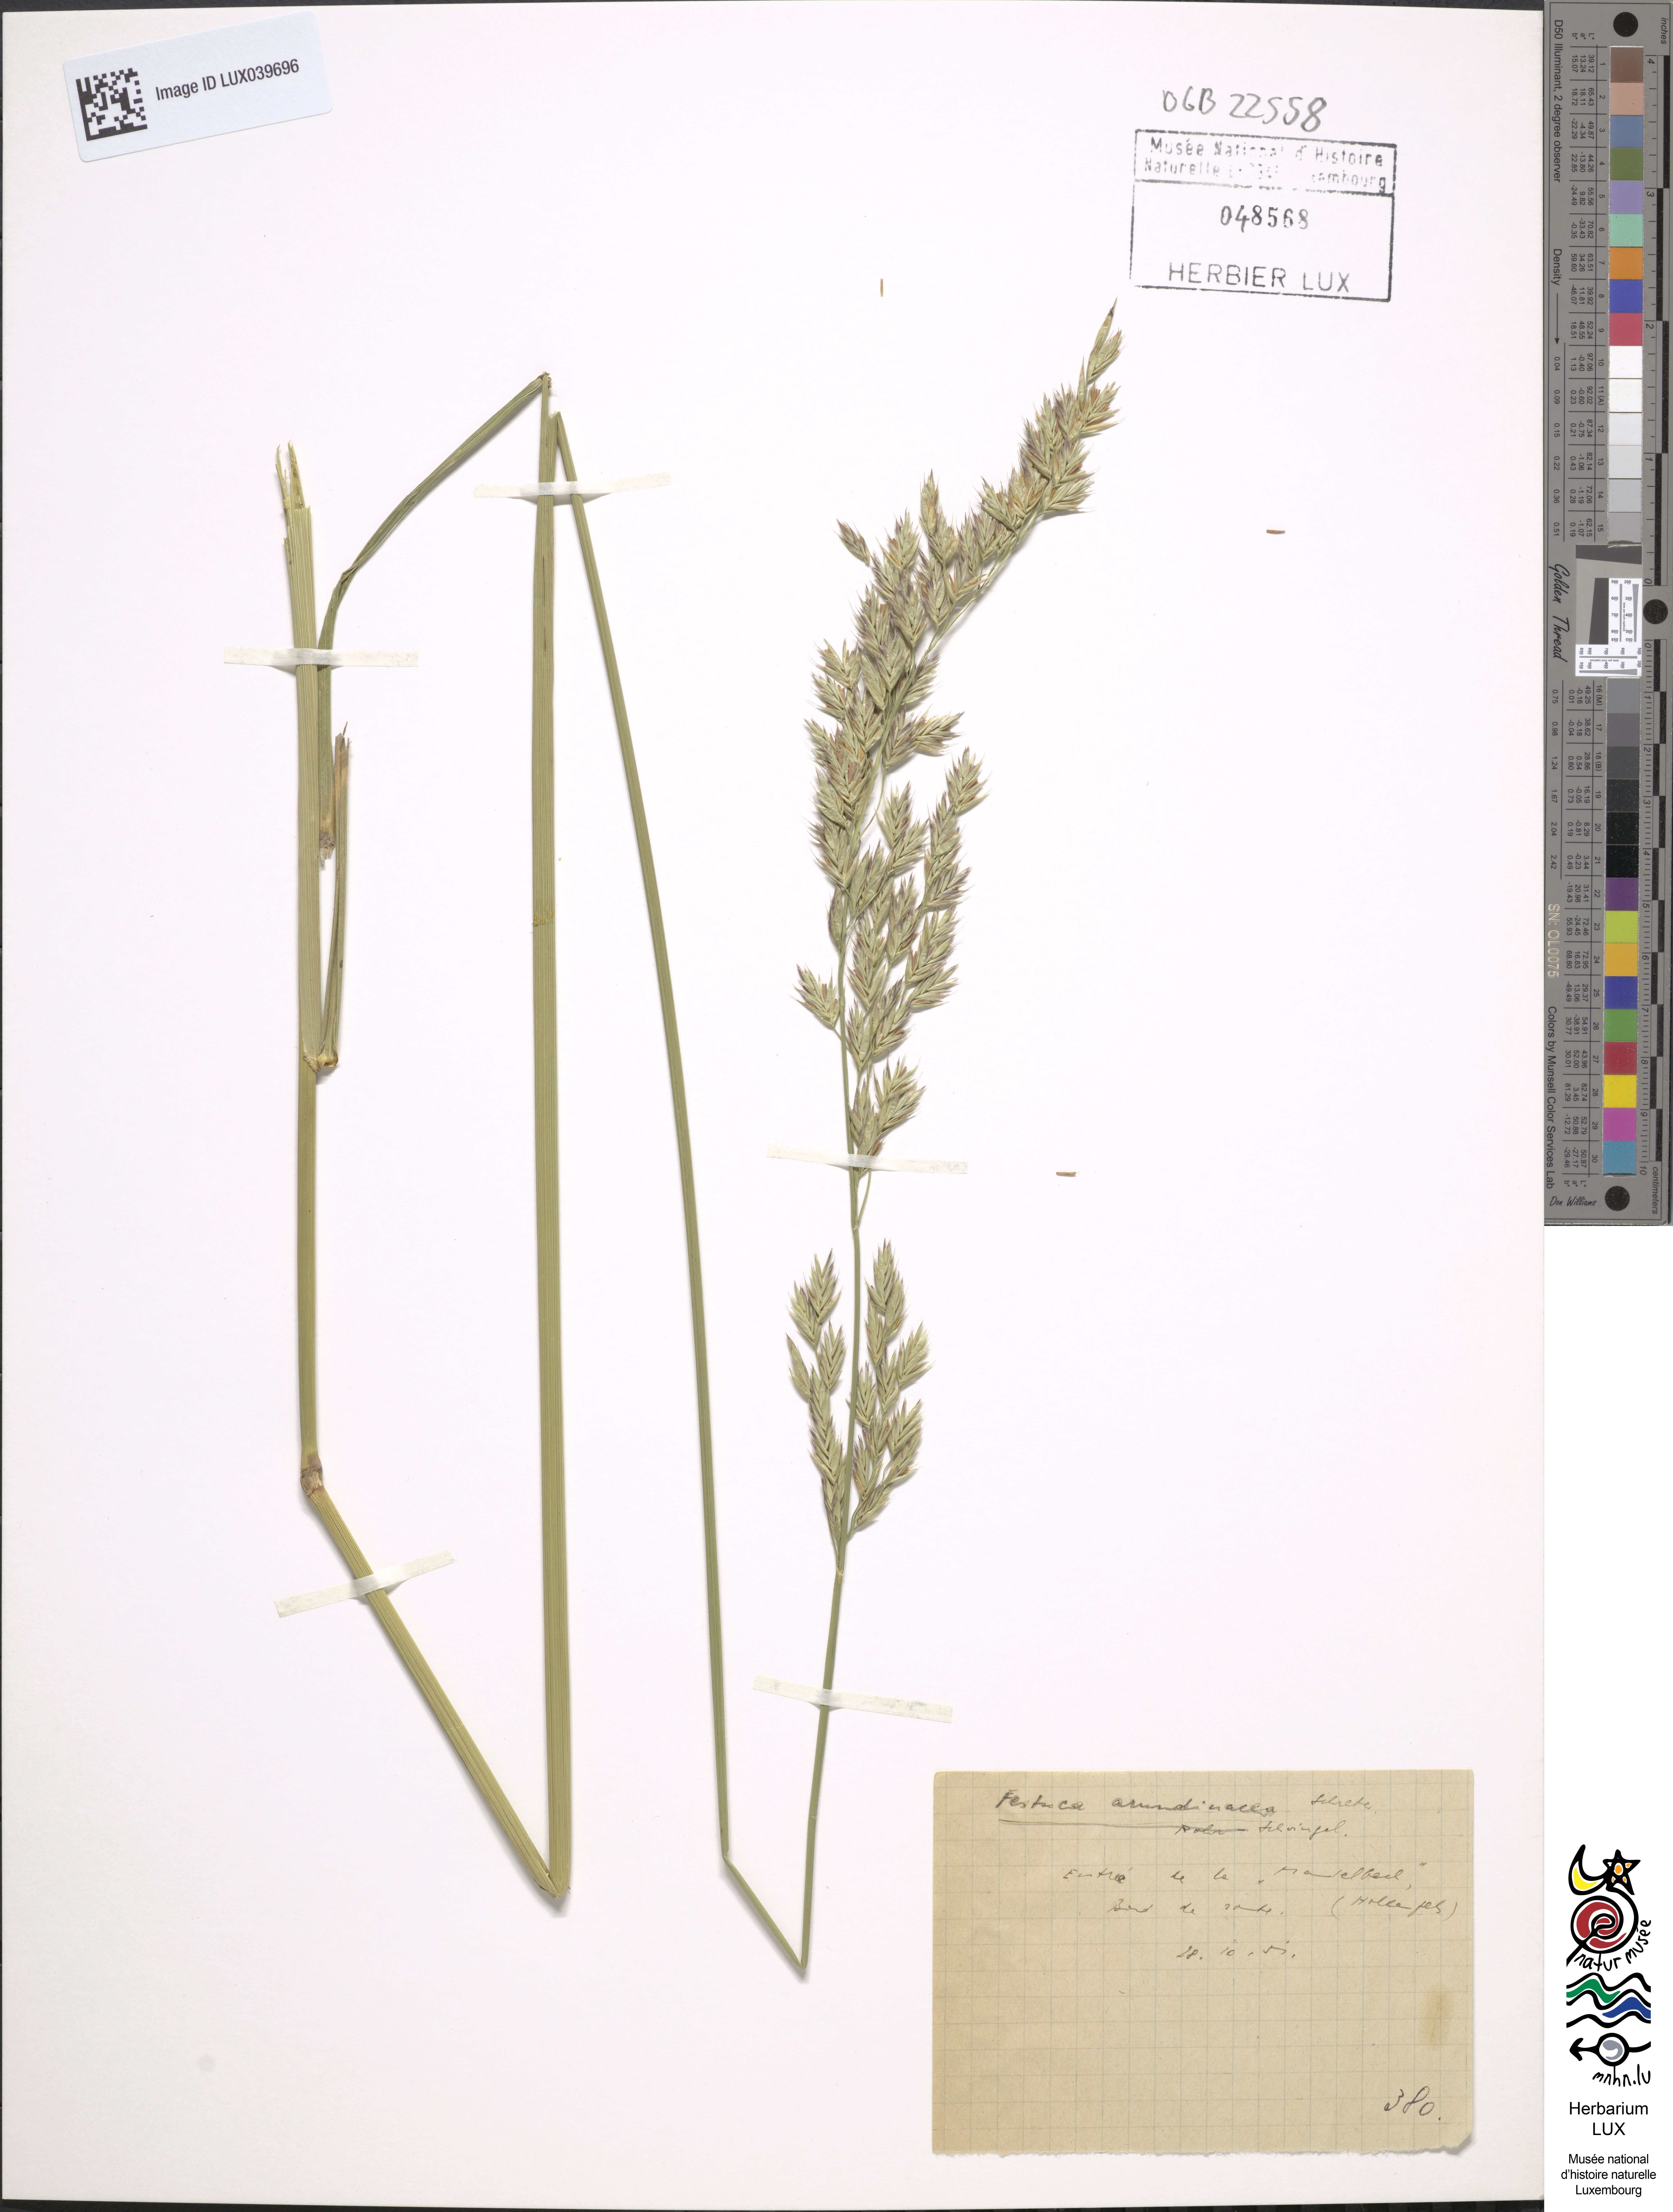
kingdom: Plantae
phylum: Tracheophyta
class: Liliopsida
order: Poales
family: Poaceae
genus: Lolium
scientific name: Lolium arundinaceum
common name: Reed fescue
